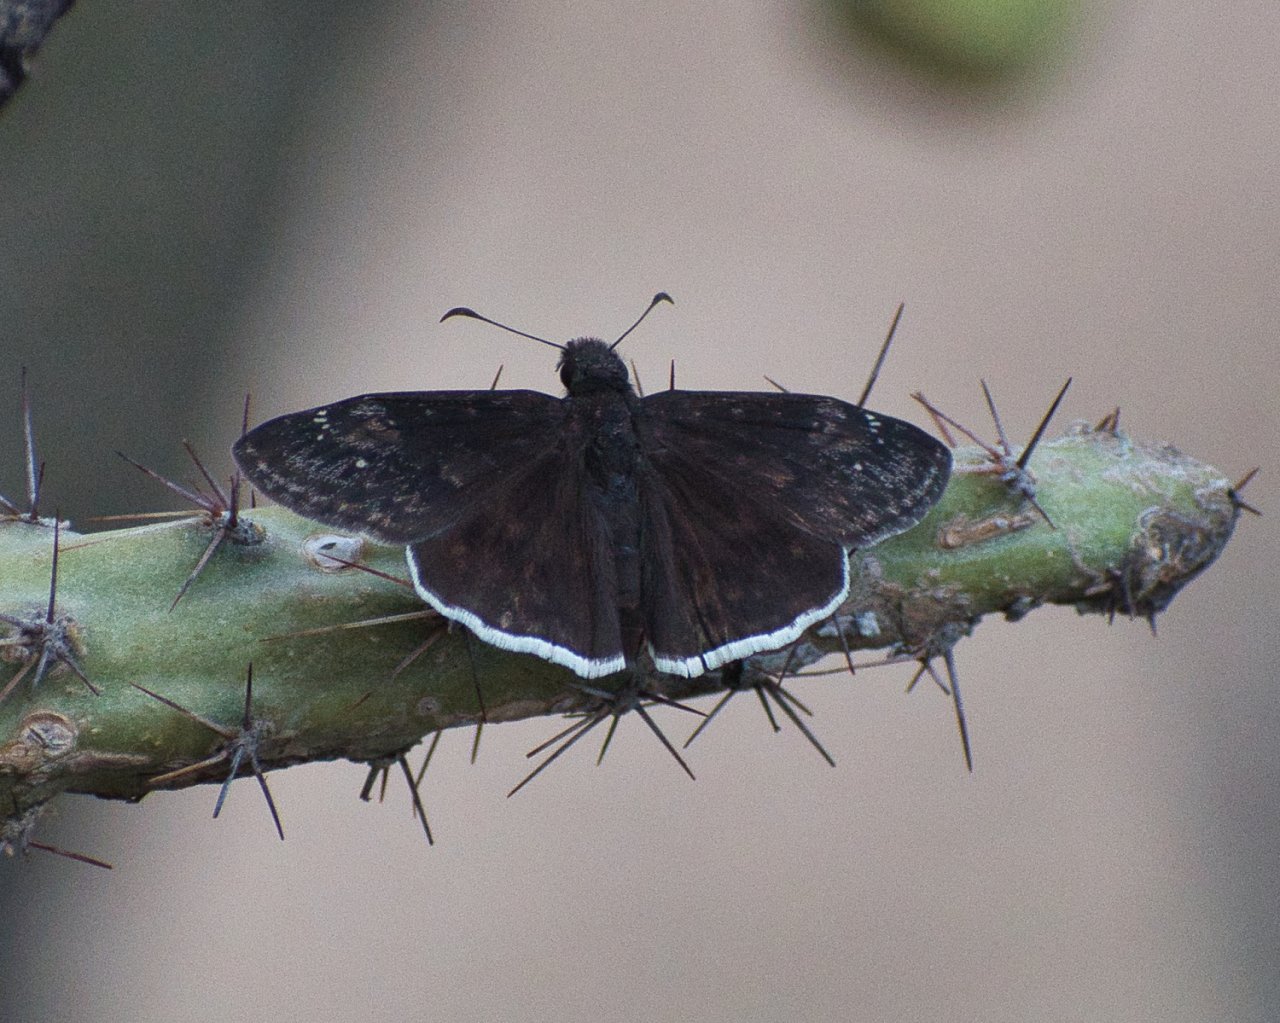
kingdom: Animalia
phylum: Arthropoda
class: Insecta
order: Lepidoptera
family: Hesperiidae
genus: Erynnis
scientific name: Erynnis funeralis
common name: Funereal Duskywing
